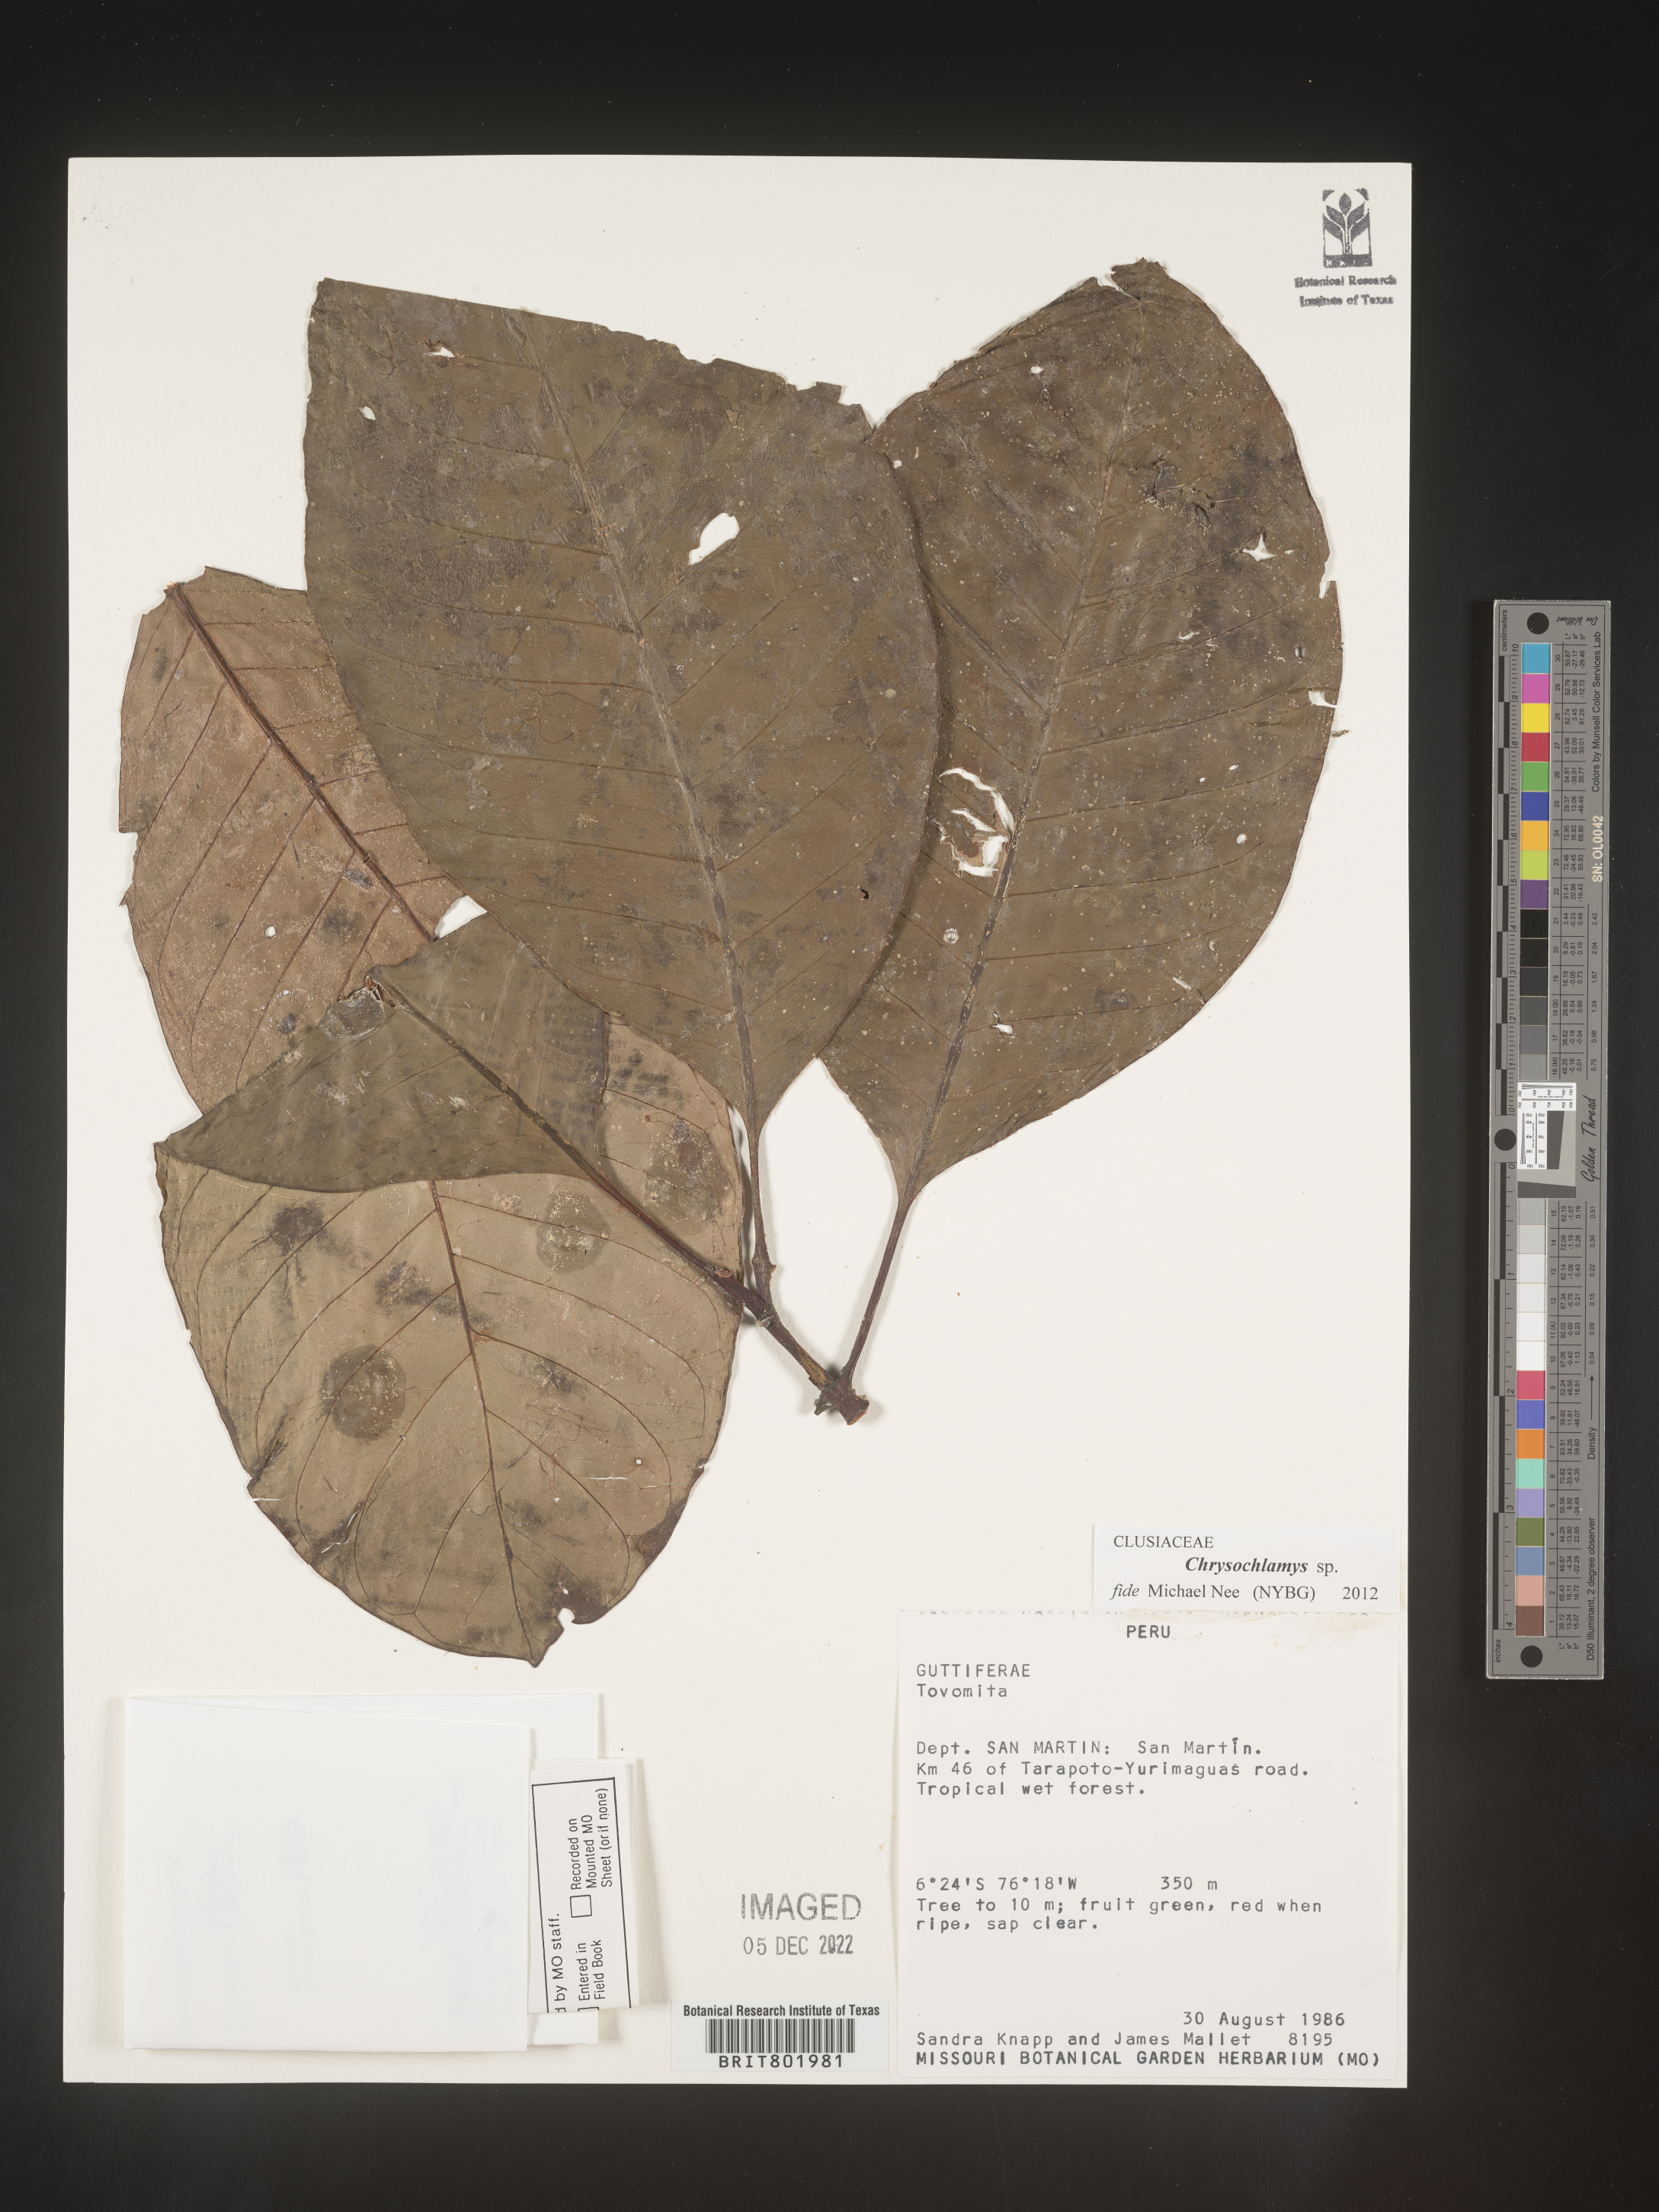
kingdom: Plantae
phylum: Tracheophyta
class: Magnoliopsida
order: Malpighiales
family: Clusiaceae
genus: Chrysochlamys
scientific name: Chrysochlamys
